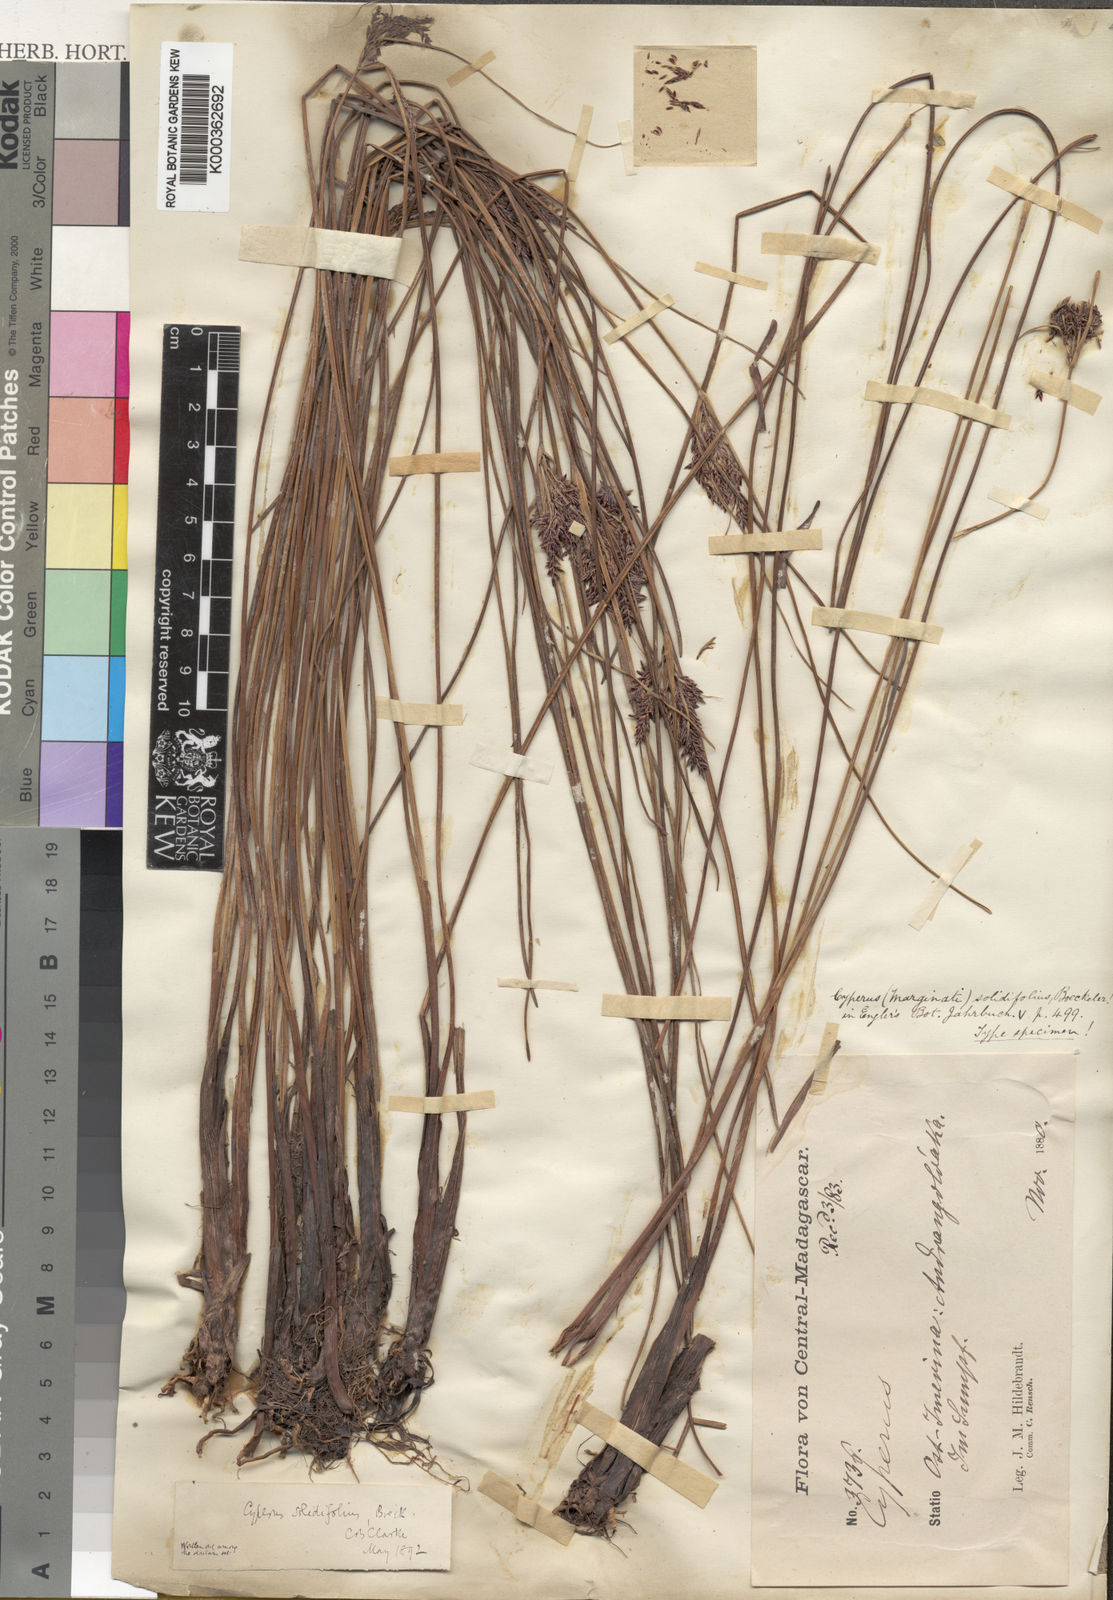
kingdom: Plantae
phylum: Tracheophyta
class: Liliopsida
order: Poales
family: Cyperaceae
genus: Cyperus
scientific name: Cyperus solidifolius
